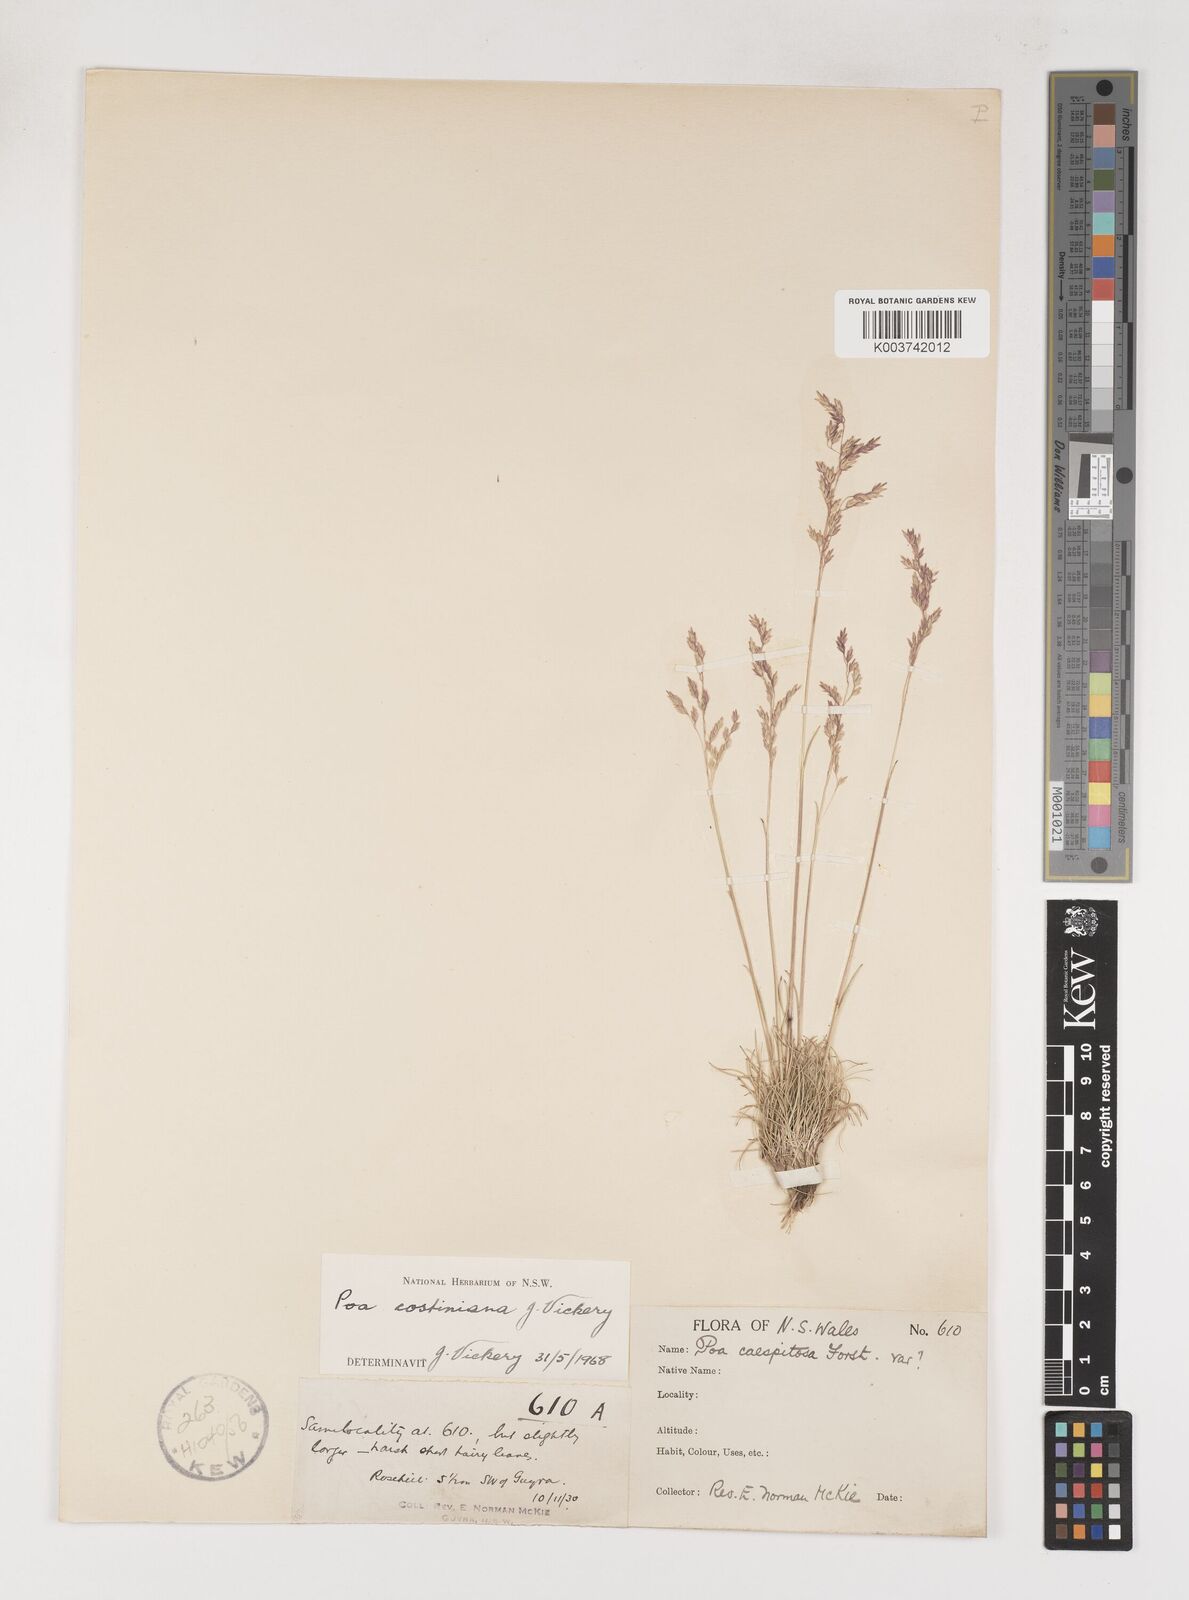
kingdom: Plantae
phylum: Tracheophyta
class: Liliopsida
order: Poales
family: Poaceae
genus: Poa
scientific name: Poa costiniana
